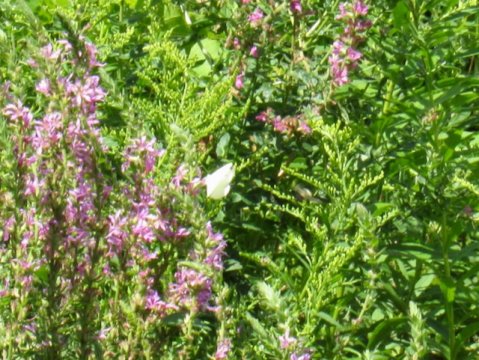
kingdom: Animalia
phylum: Arthropoda
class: Insecta
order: Lepidoptera
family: Pieridae
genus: Pieris
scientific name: Pieris rapae
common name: Cabbage White
